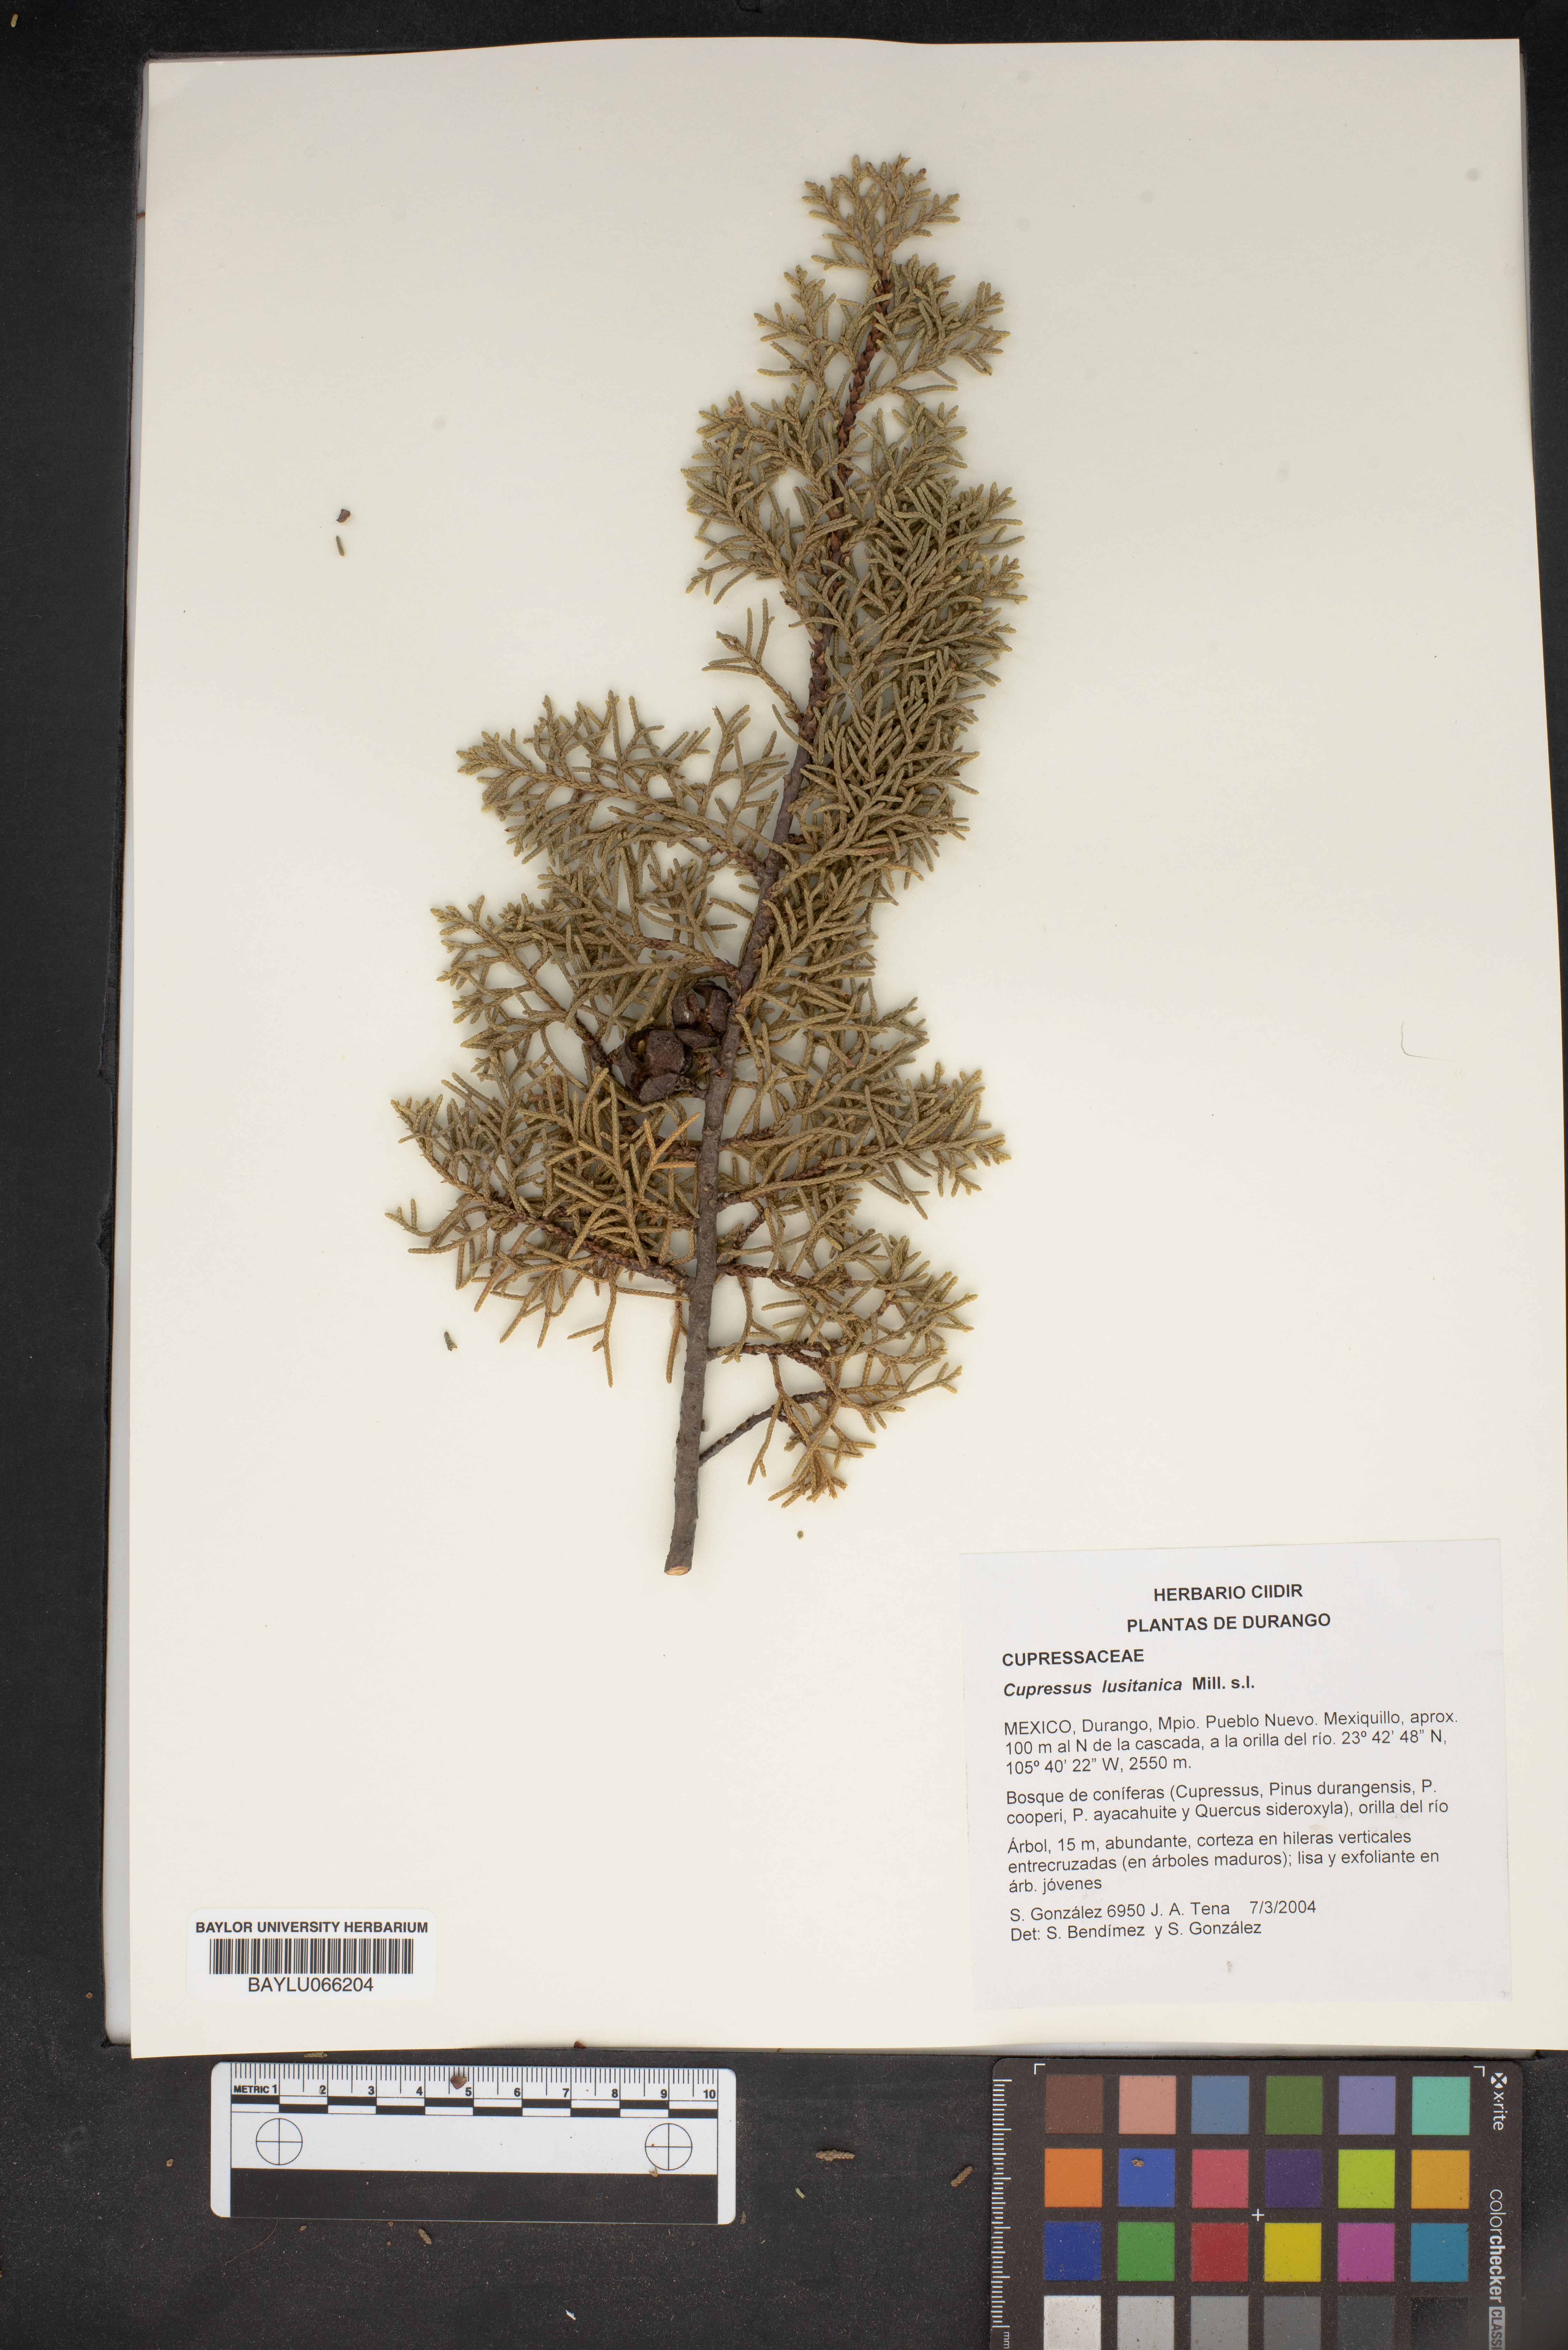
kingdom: Plantae
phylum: Tracheophyta
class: Pinopsida
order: Pinales
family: Cupressaceae
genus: Cupressus
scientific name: Cupressus lusitanica
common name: Mexican cypress
